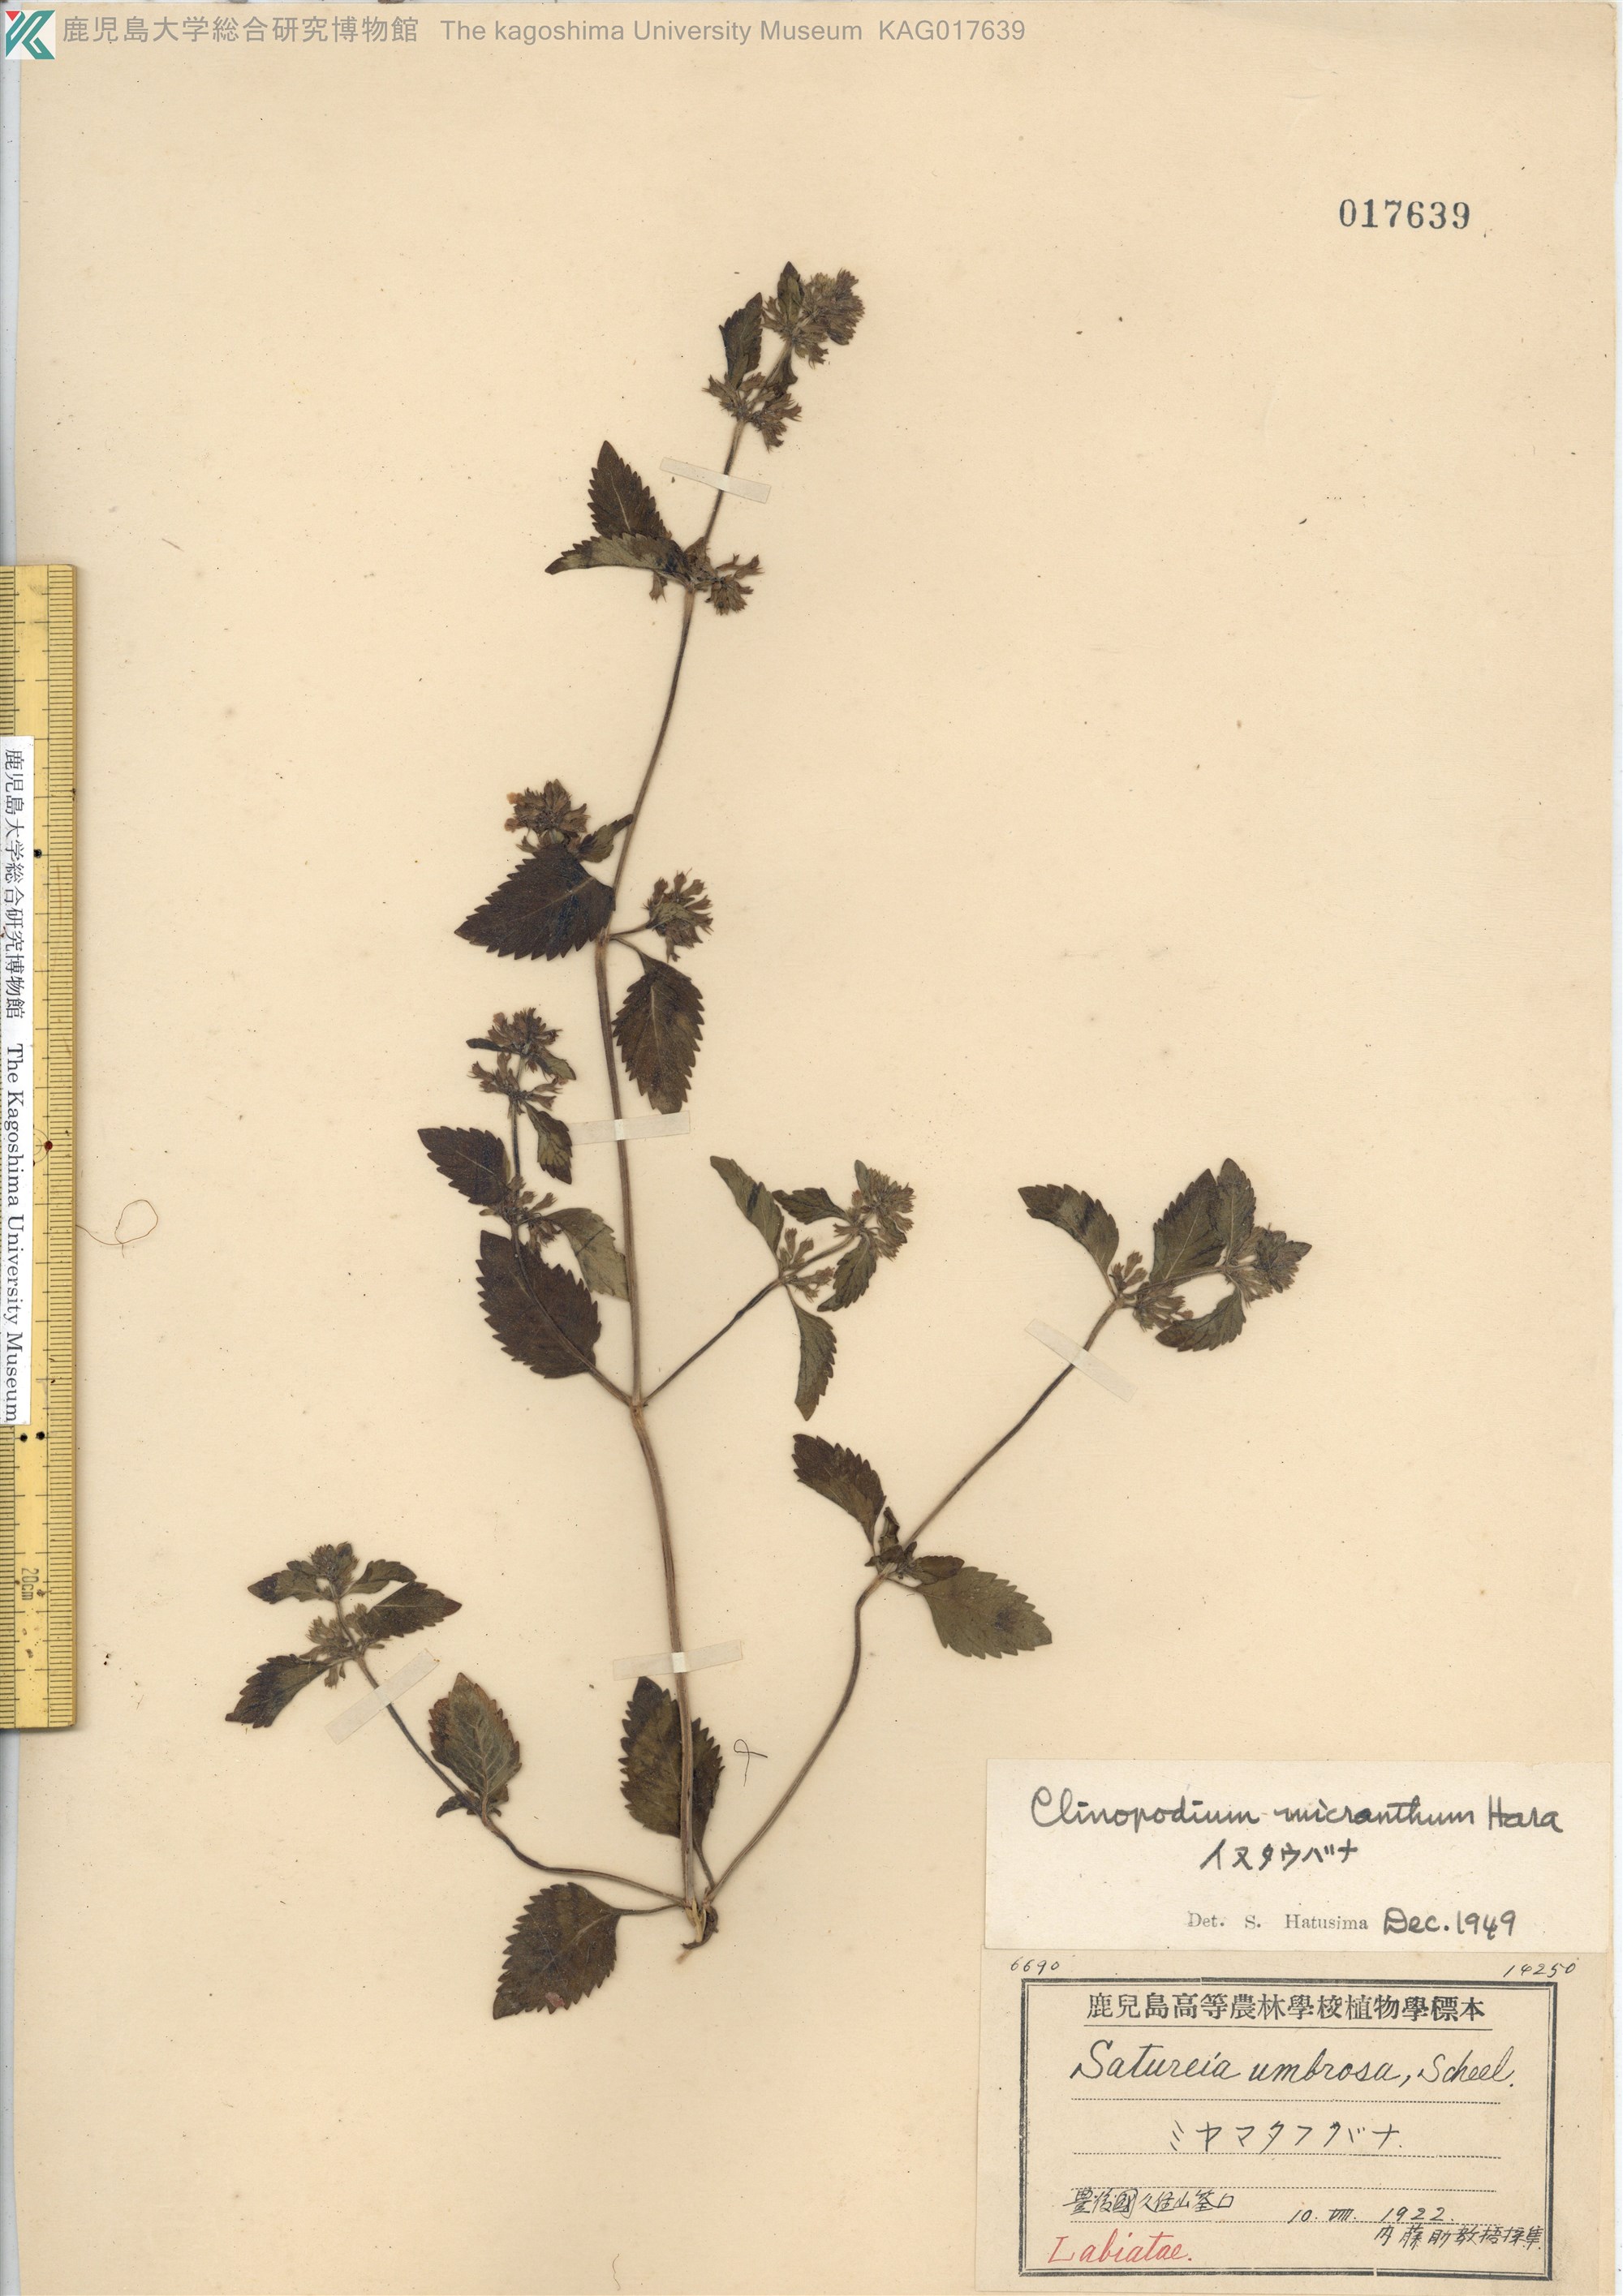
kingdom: Plantae
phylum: Tracheophyta
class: Magnoliopsida
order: Lamiales
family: Lamiaceae
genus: Clinopodium
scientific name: Clinopodium micranthum
